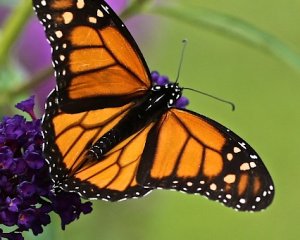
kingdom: Animalia
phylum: Arthropoda
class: Insecta
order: Lepidoptera
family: Nymphalidae
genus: Danaus
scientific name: Danaus plexippus
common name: Monarch
